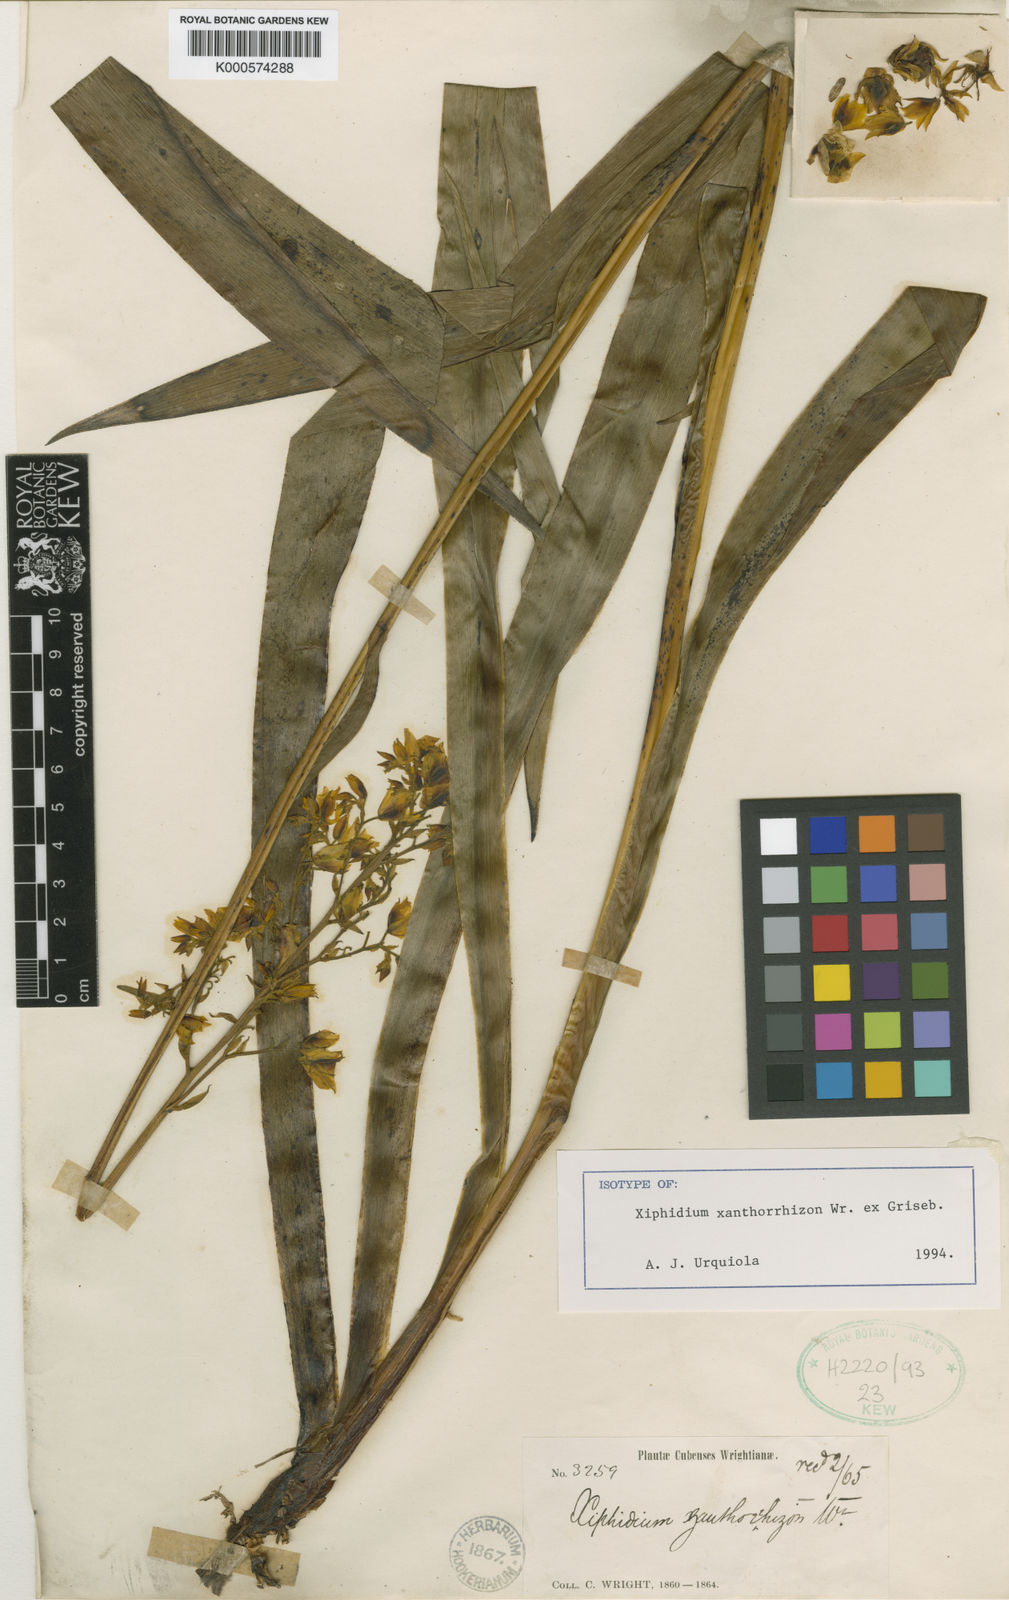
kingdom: Plantae
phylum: Tracheophyta
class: Liliopsida
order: Commelinales
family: Haemodoraceae
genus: Cubanicula
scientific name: Cubanicula xanthorrhizos
